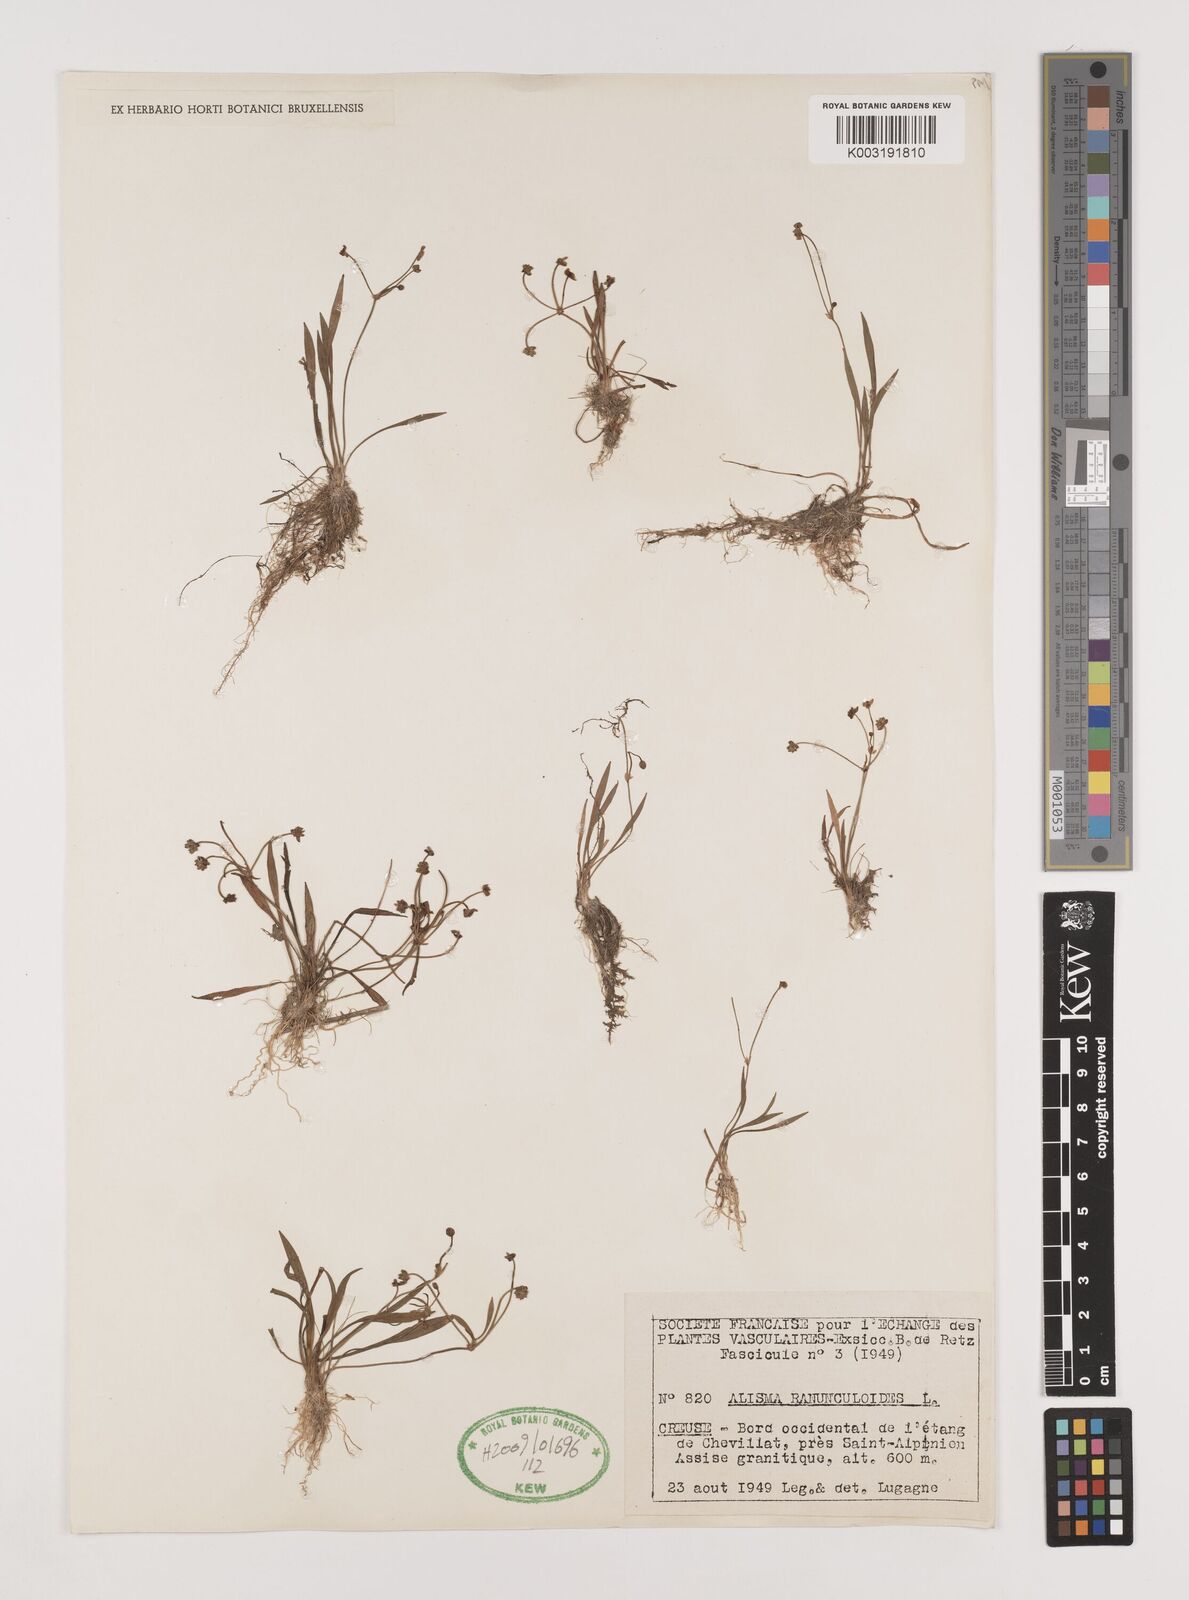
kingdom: Plantae
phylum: Tracheophyta
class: Liliopsida
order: Alismatales
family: Alismataceae
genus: Baldellia
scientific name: Baldellia ranunculoides
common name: Lesser water-plantain
